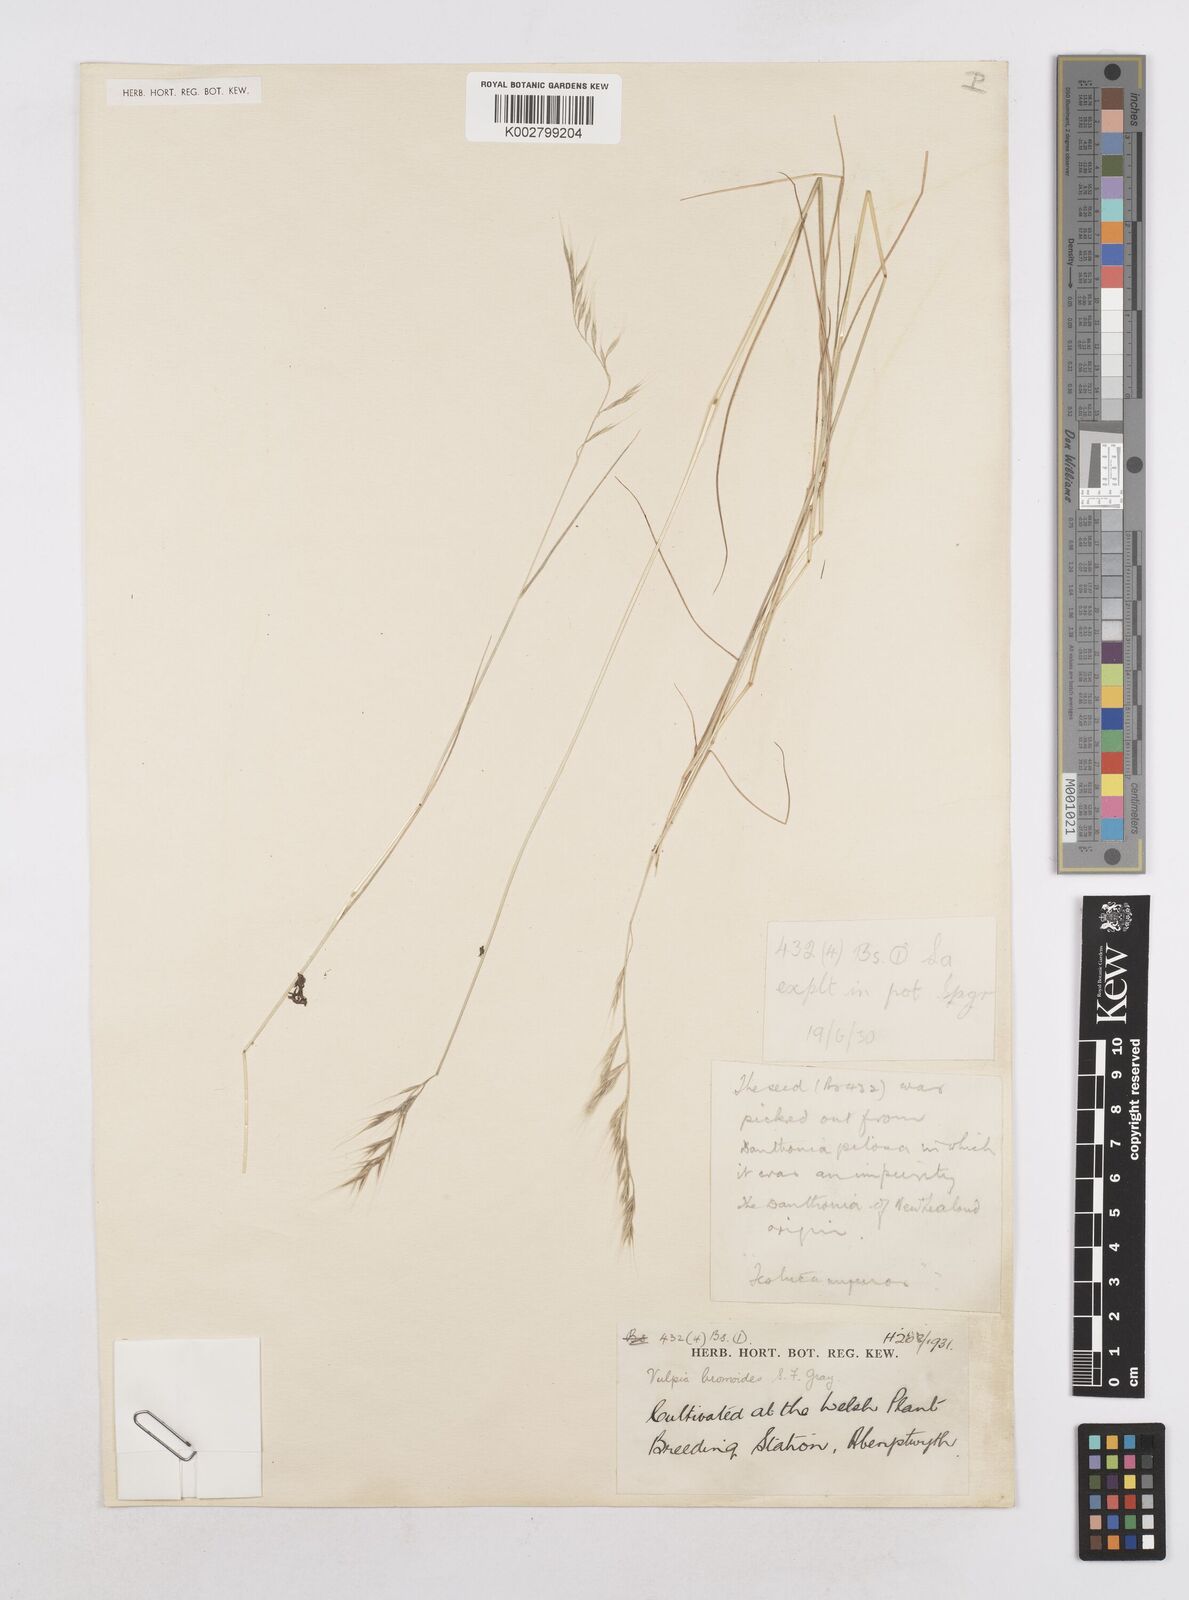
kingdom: Plantae
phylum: Tracheophyta
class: Liliopsida
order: Poales
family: Poaceae
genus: Festuca
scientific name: Festuca bromoides
